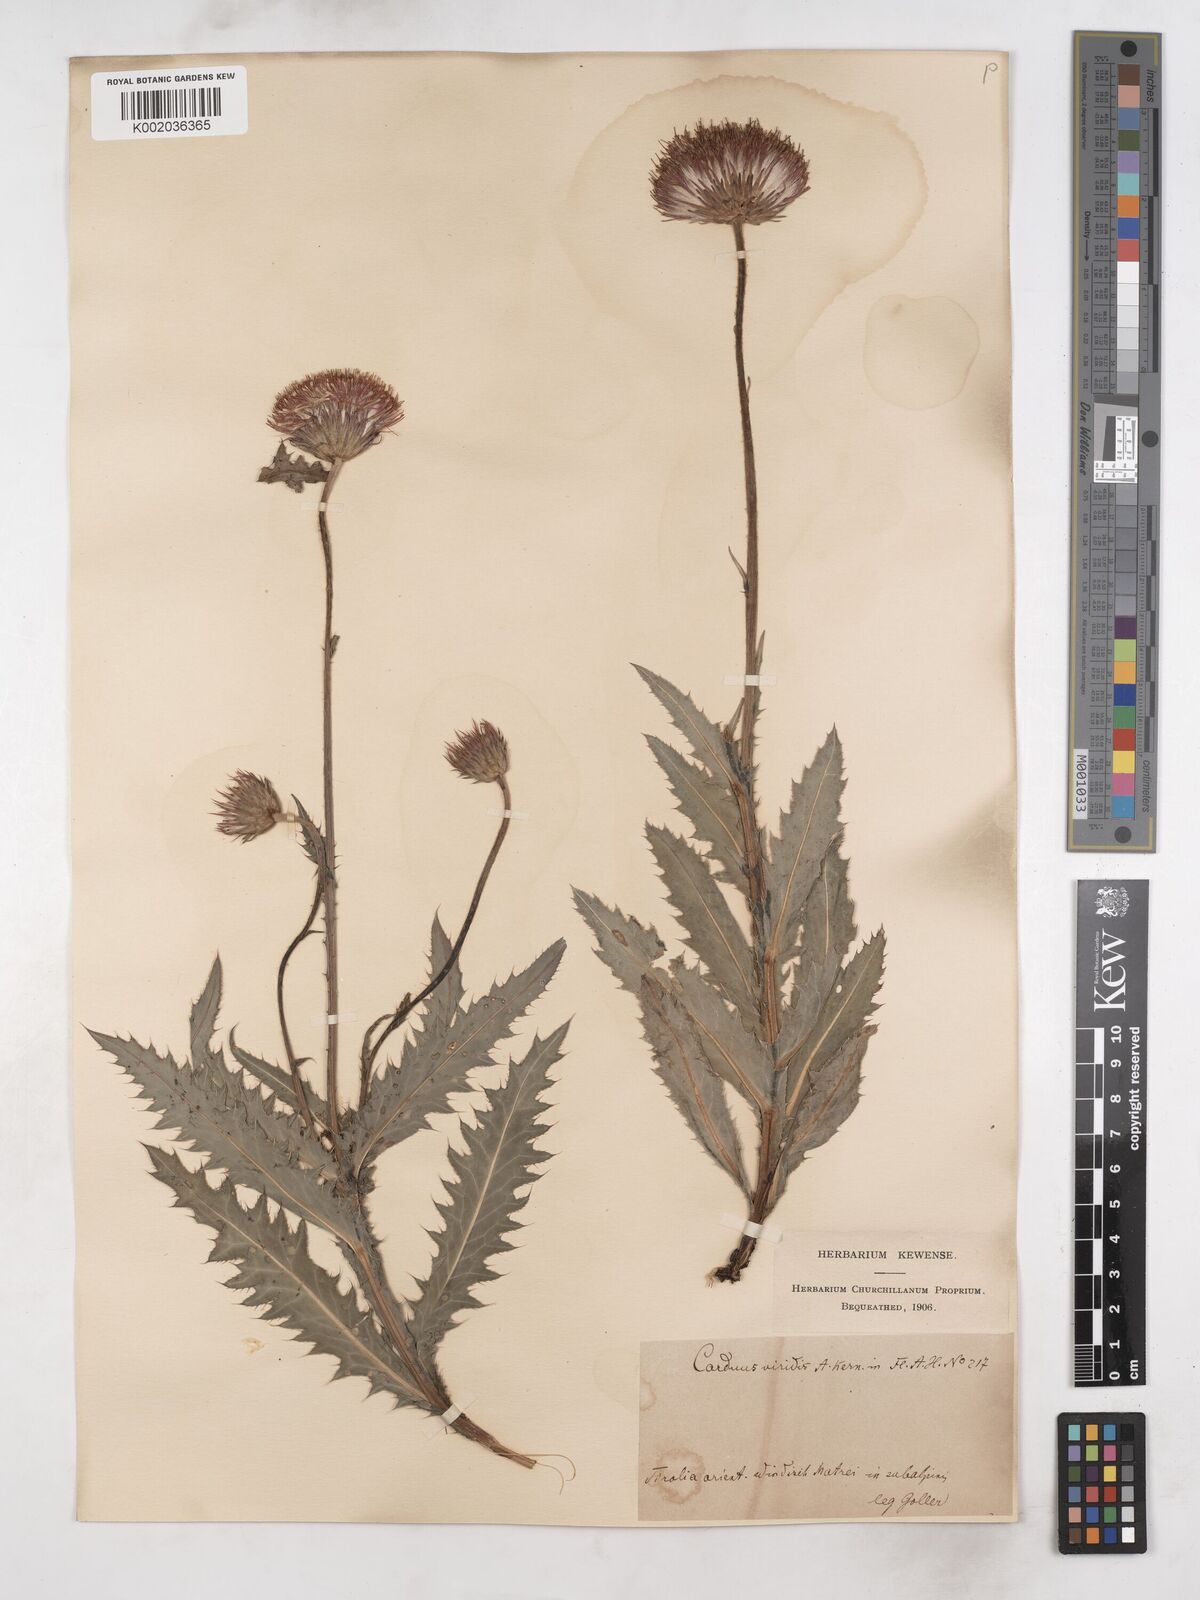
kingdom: Plantae
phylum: Tracheophyta
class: Magnoliopsida
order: Asterales
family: Asteraceae
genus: Carduus
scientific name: Carduus defloratus
